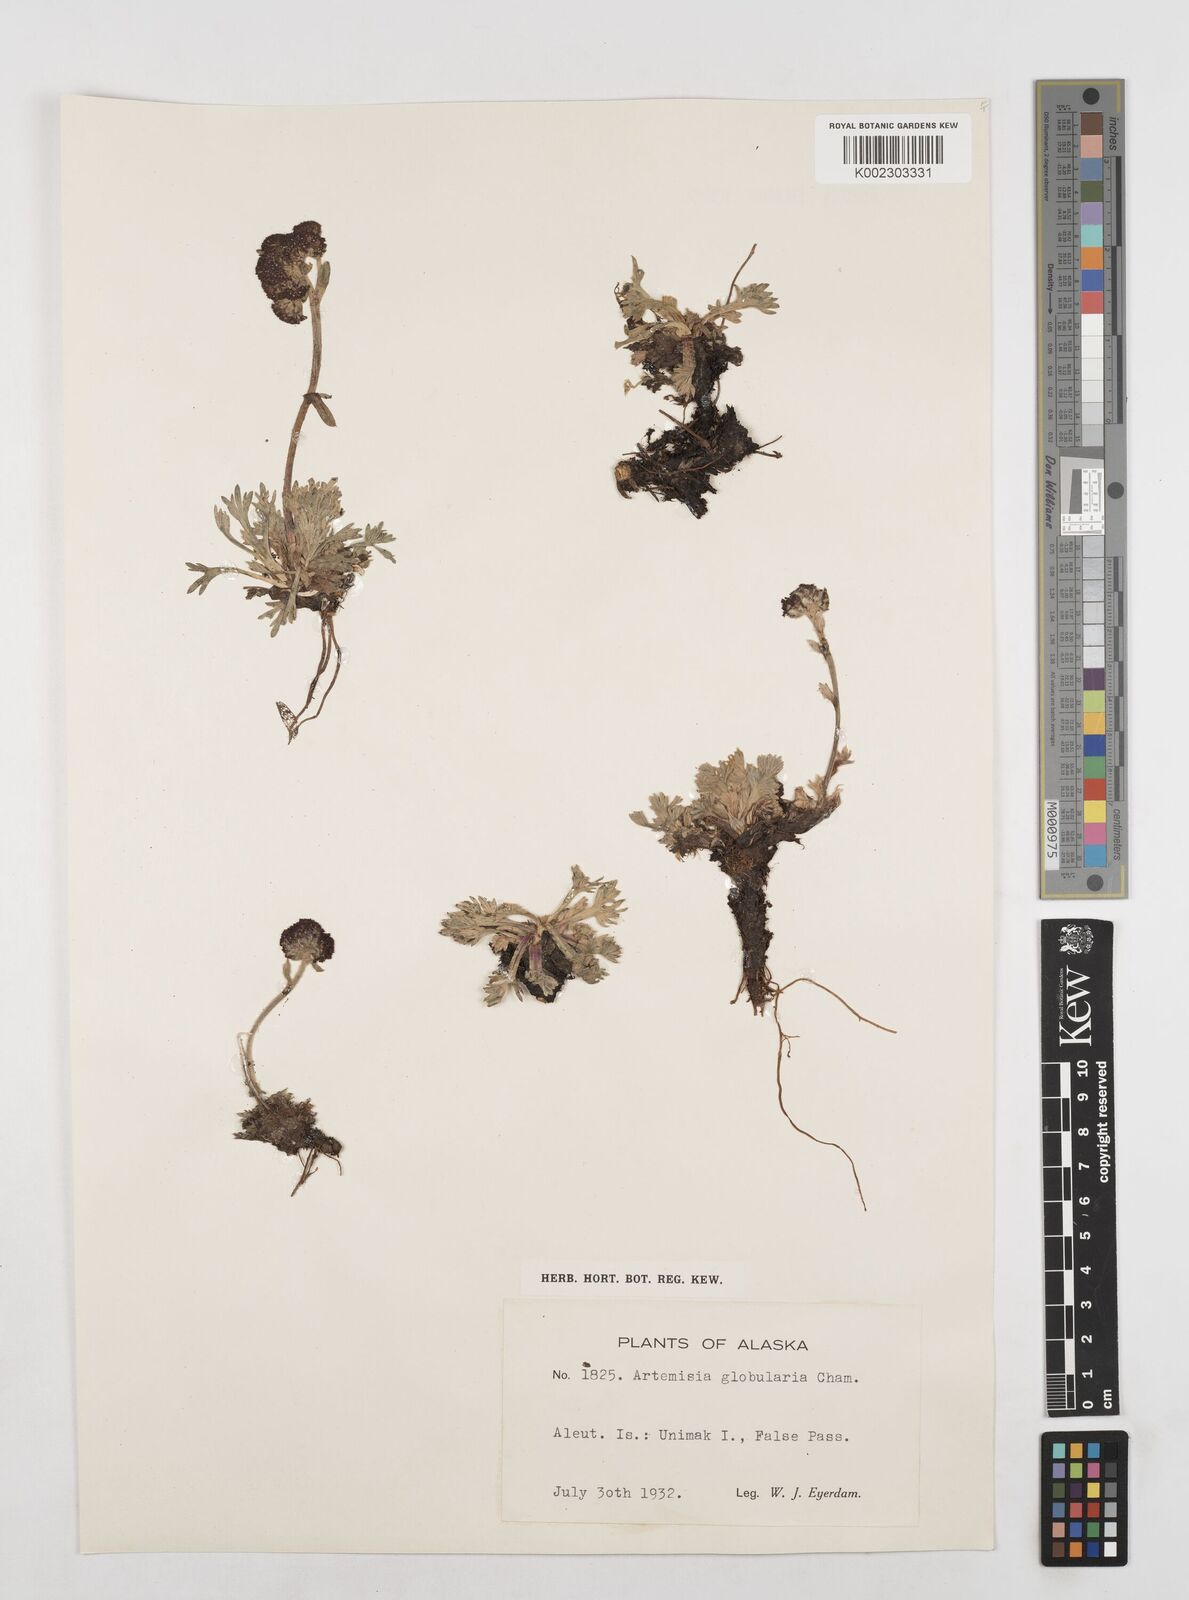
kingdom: Plantae
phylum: Tracheophyta
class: Magnoliopsida
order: Asterales
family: Asteraceae
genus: Artemisia
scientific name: Artemisia globularia
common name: Purple wormwood
